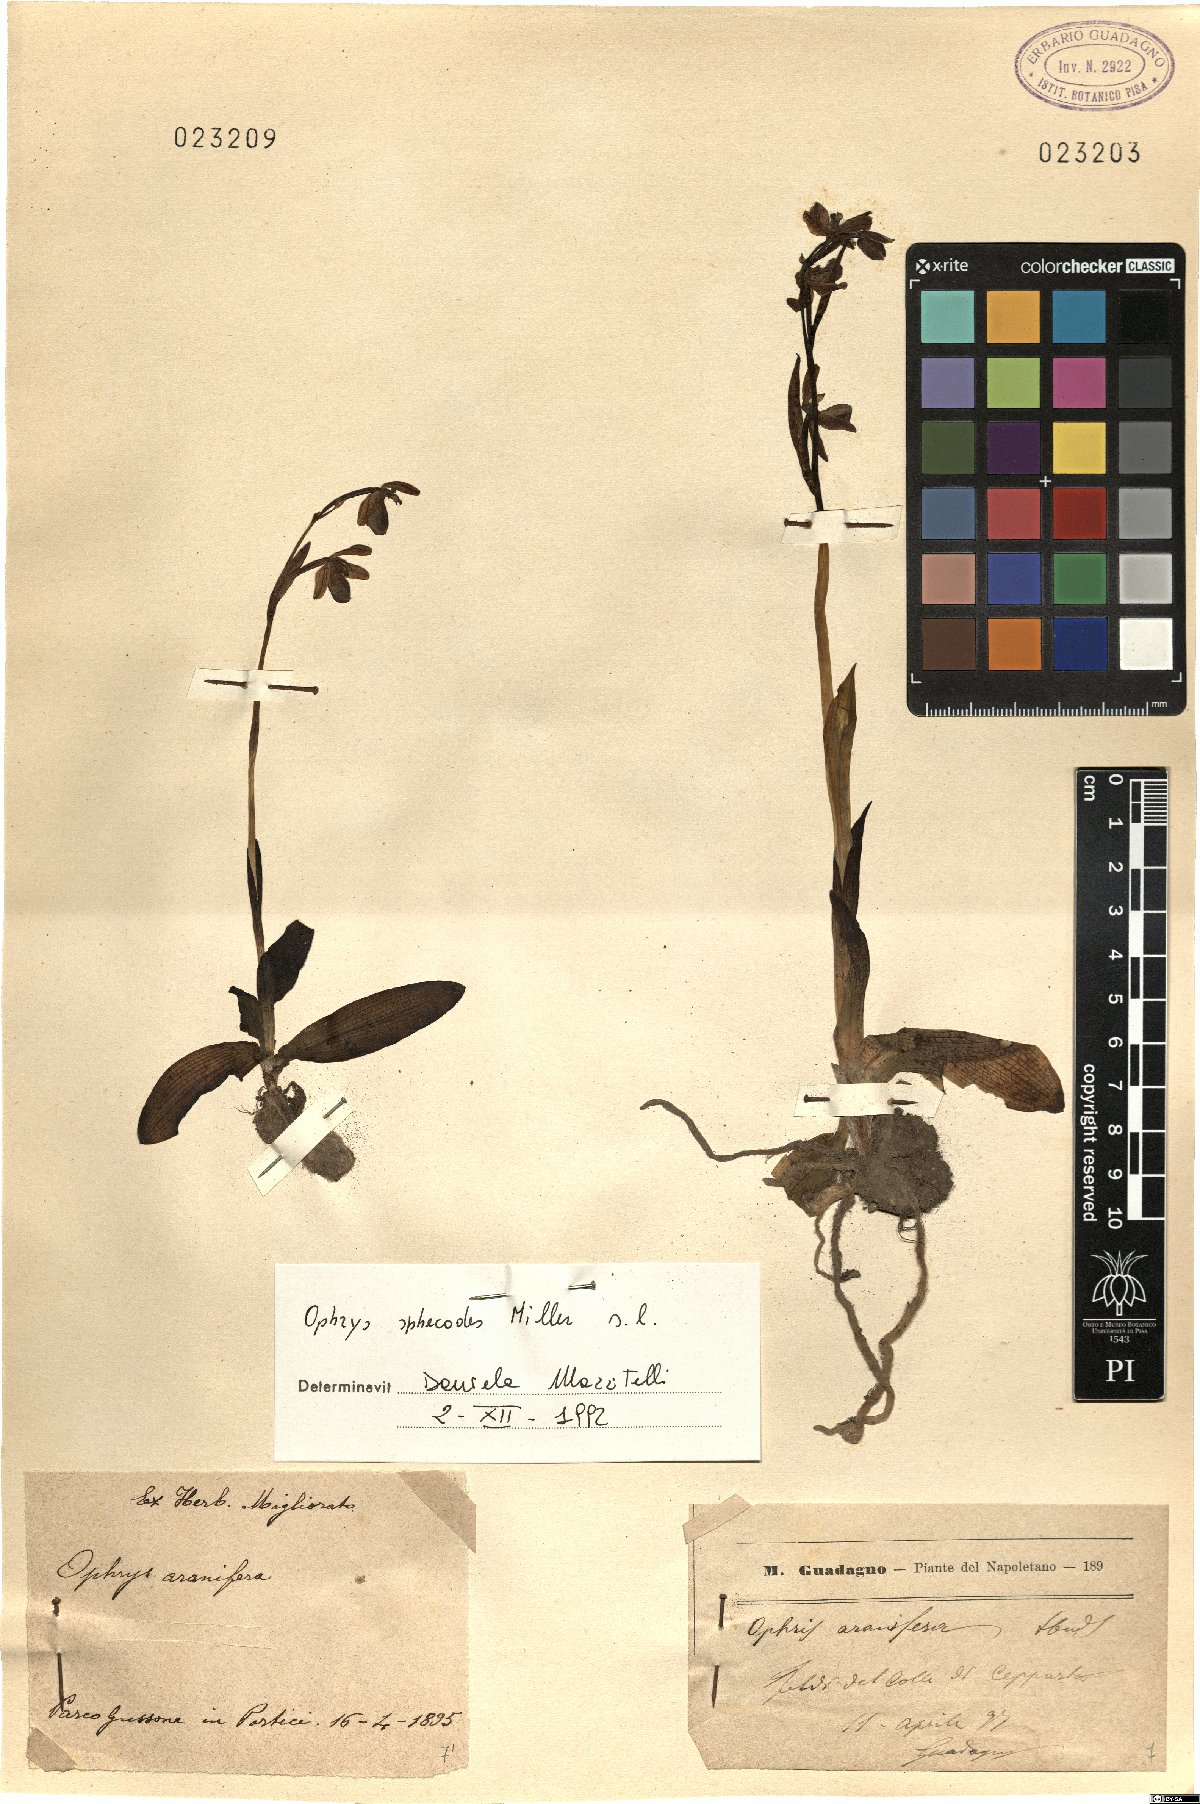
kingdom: Plantae
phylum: Tracheophyta
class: Liliopsida
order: Asparagales
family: Orchidaceae
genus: Ophrys
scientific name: Ophrys sphegodes
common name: Early spider-orchid
